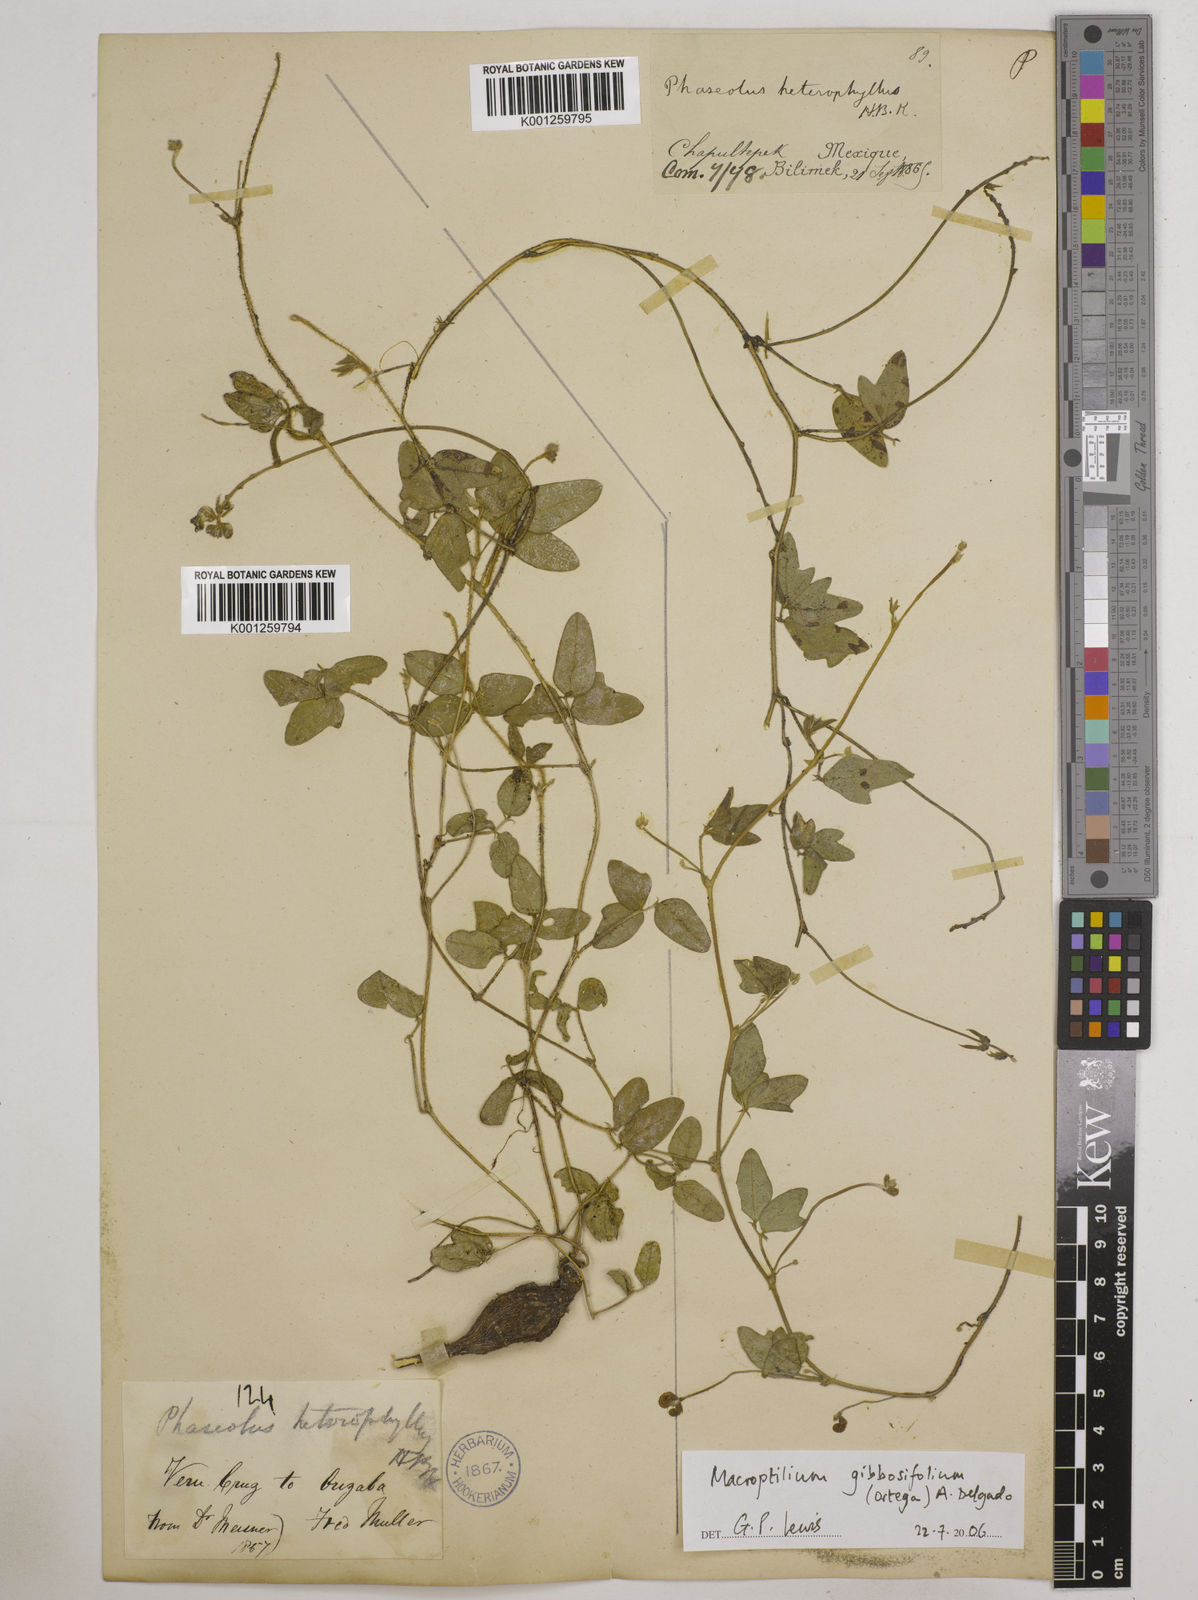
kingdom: Plantae
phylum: Tracheophyta
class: Magnoliopsida
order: Fabales
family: Fabaceae
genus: Macroptilium
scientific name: Macroptilium gibbosifolium
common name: Variableleaf bushbean
